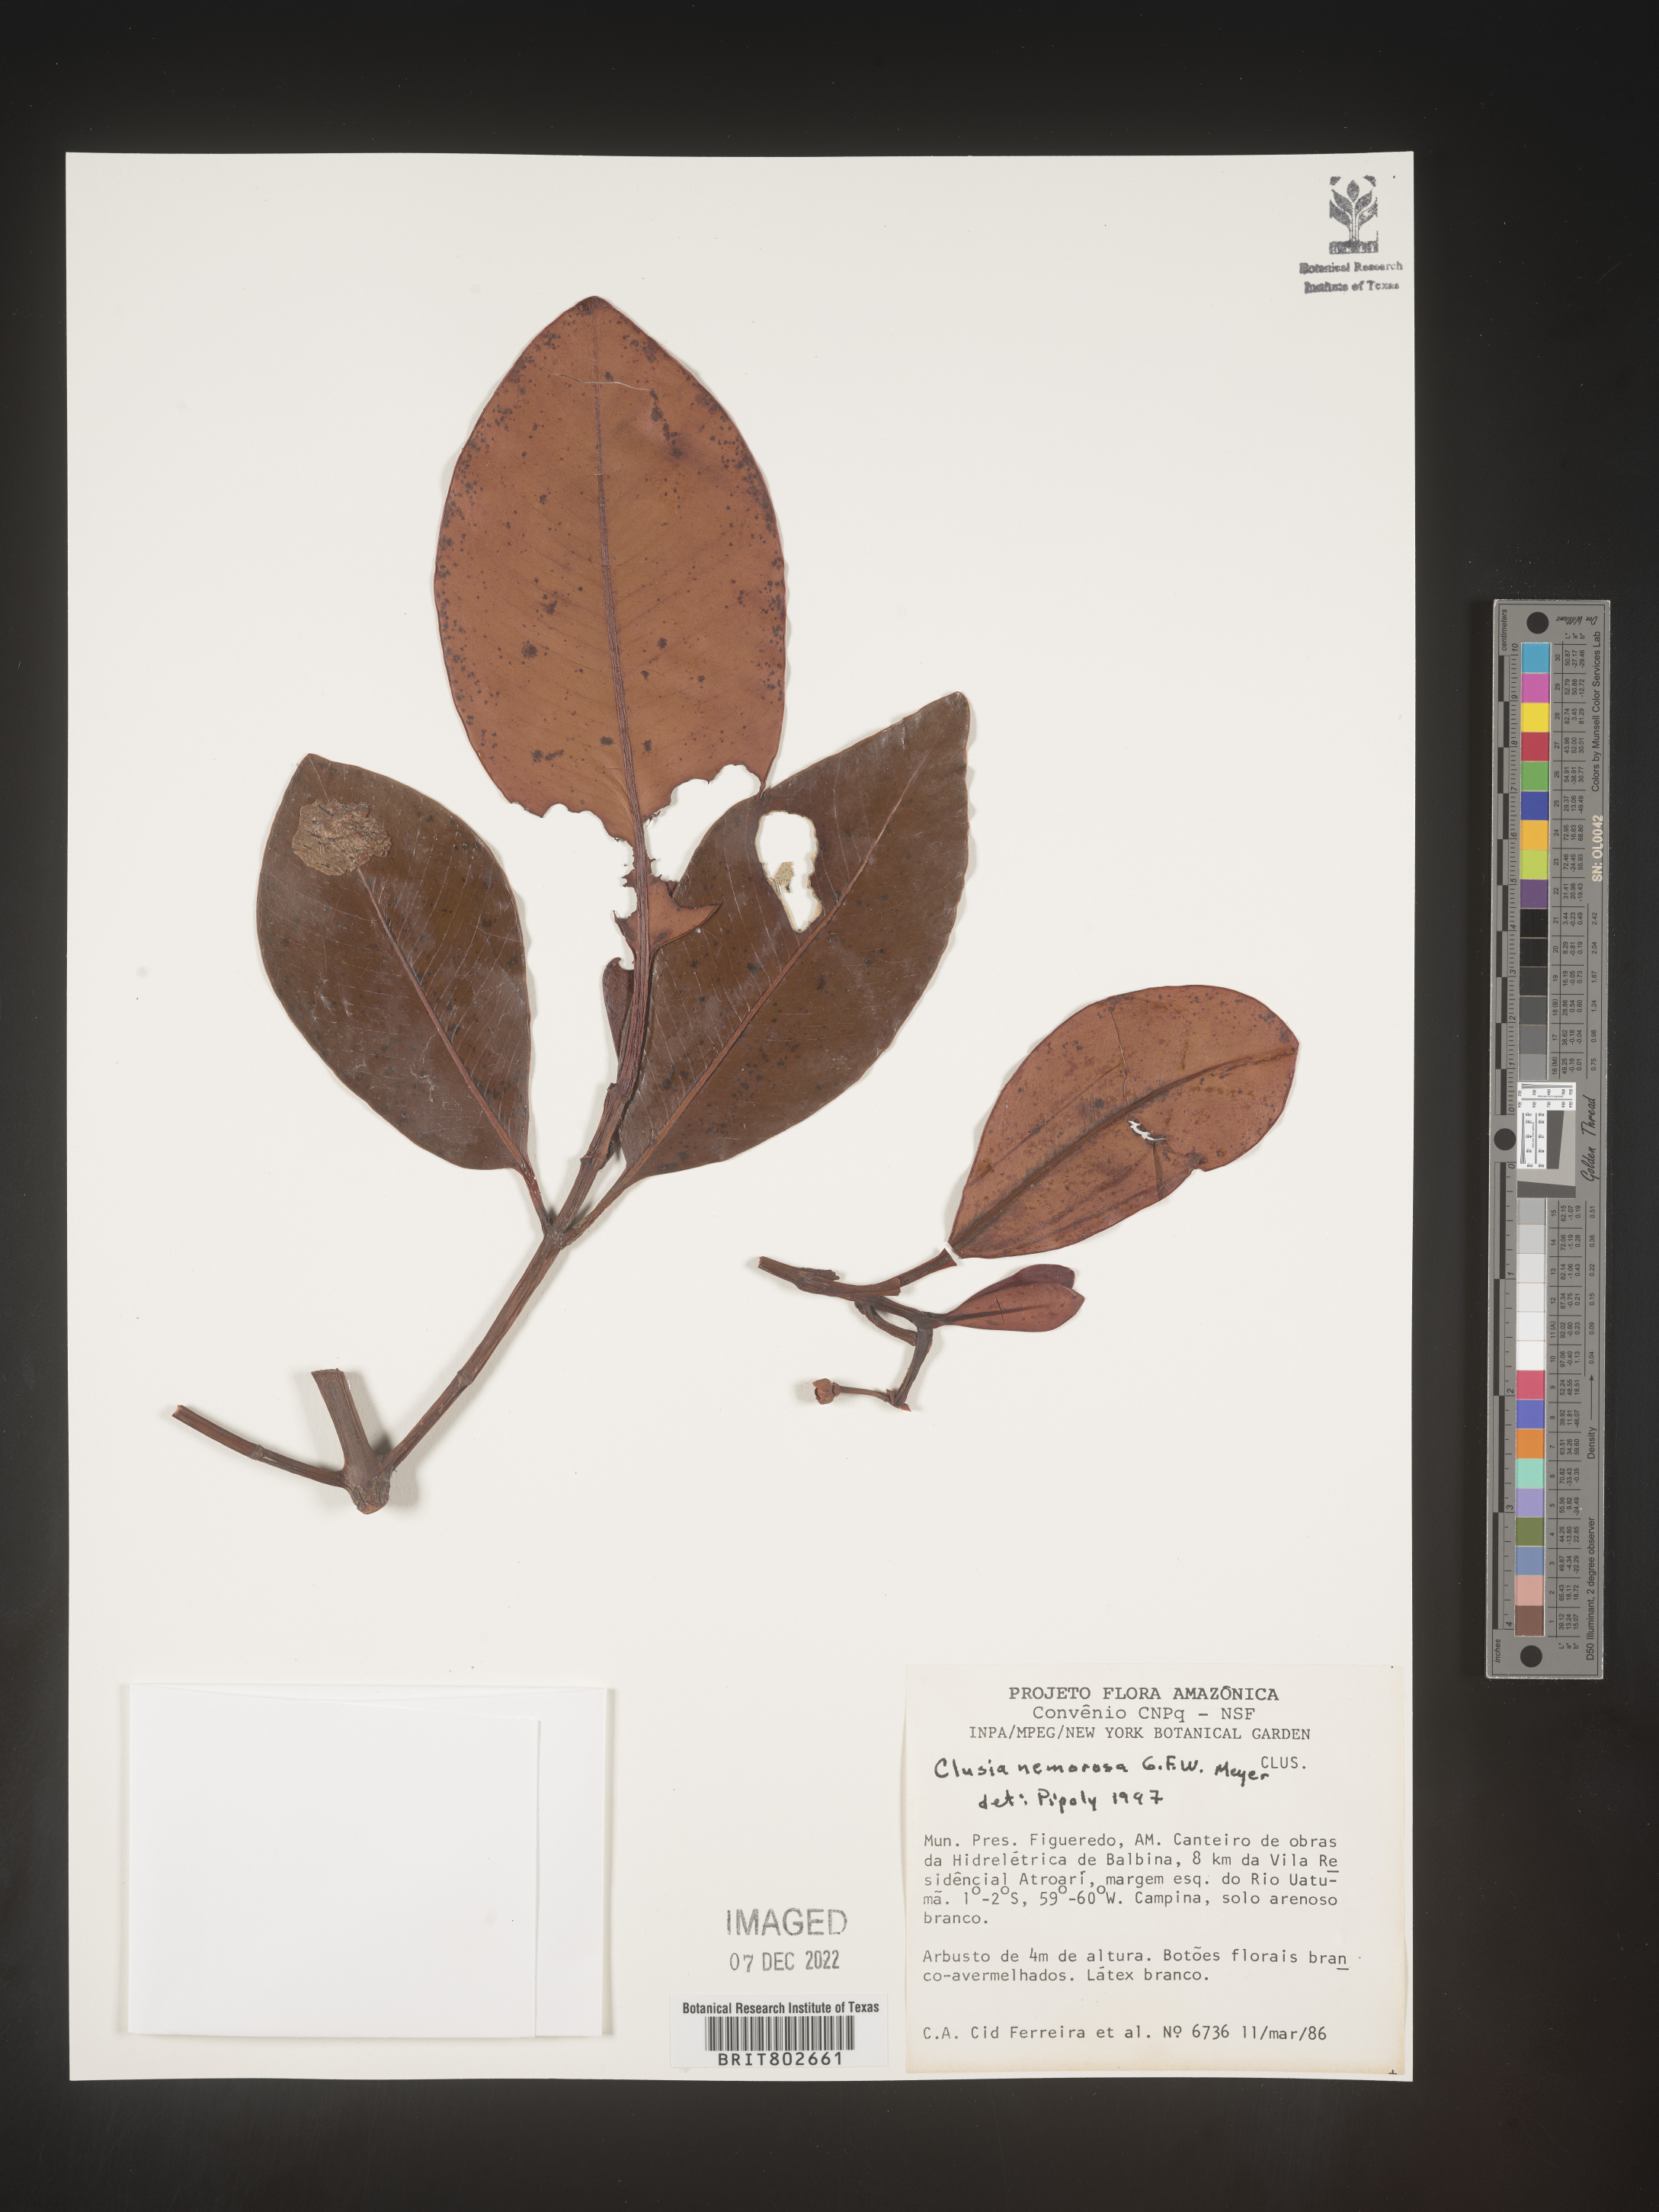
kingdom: Plantae
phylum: Tracheophyta
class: Magnoliopsida
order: Malpighiales
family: Clusiaceae
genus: Clusia
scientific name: Clusia nemorosa
